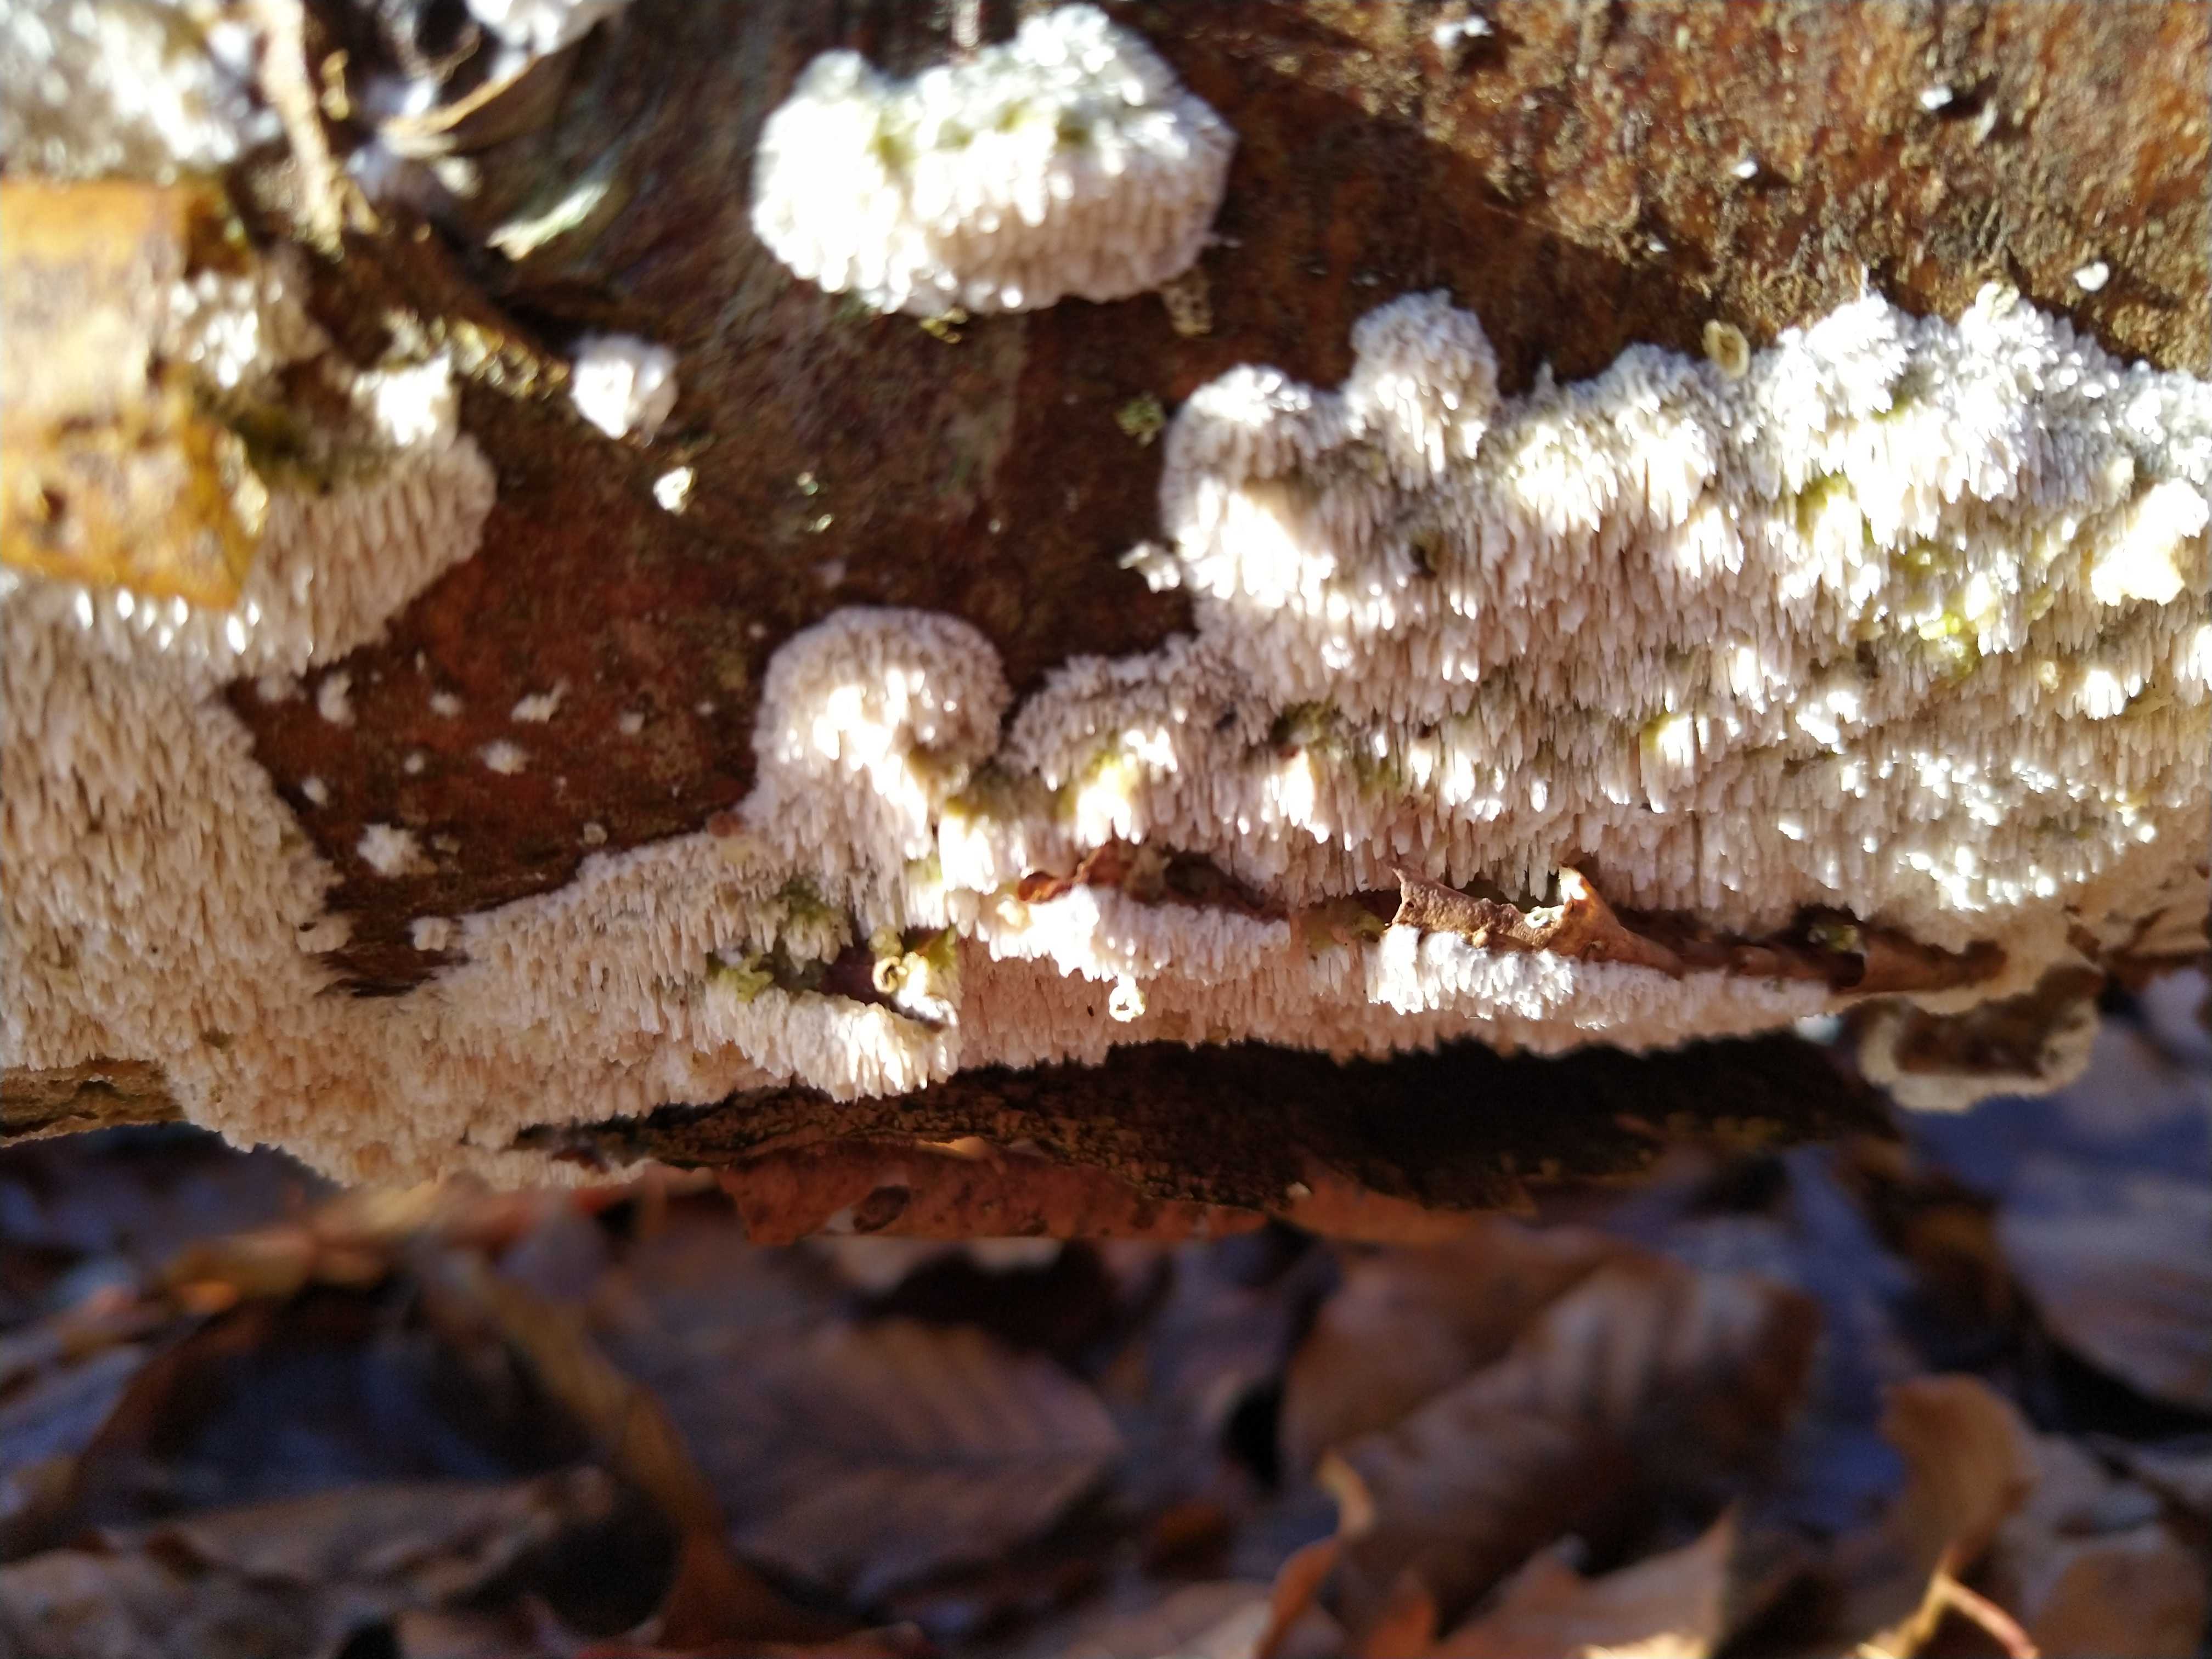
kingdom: Fungi
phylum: Basidiomycota
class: Agaricomycetes
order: Hymenochaetales
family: Schizoporaceae
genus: Schizopora
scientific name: Schizopora paradoxa
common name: hvid tandsvamp
